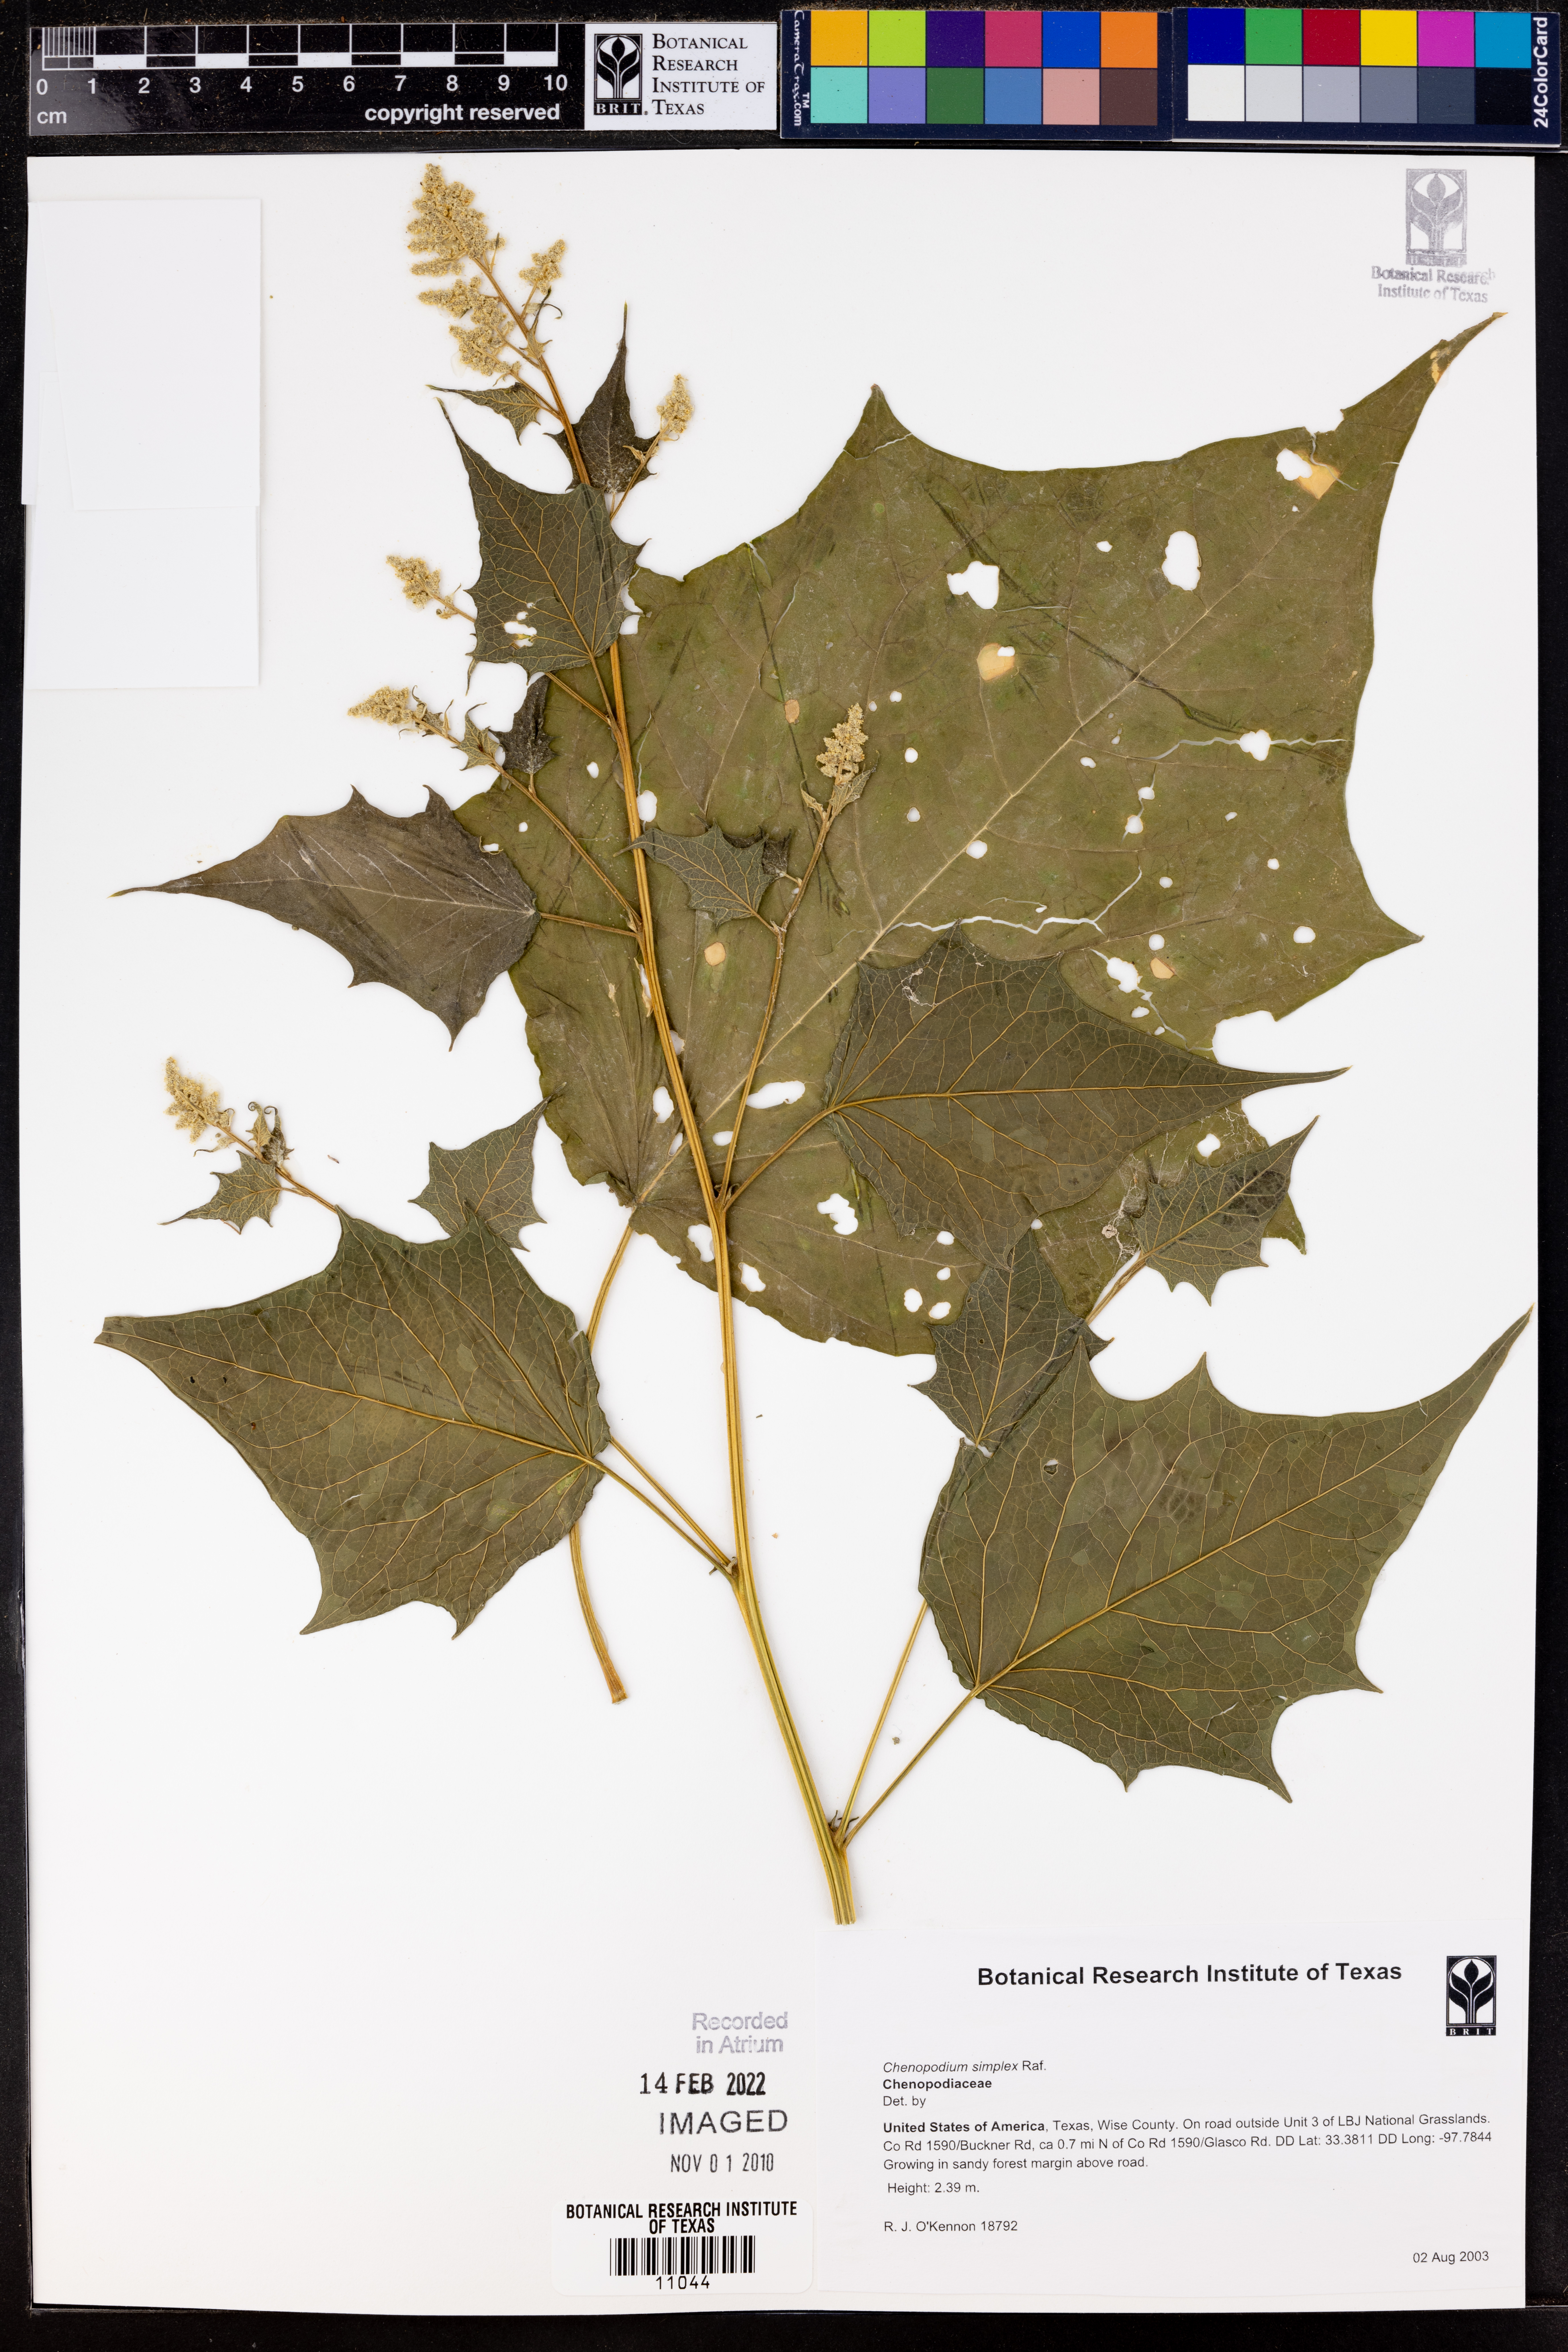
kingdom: Plantae
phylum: Tracheophyta
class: Magnoliopsida
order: Caryophyllales
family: Amaranthaceae
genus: Chenopodiastrum
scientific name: Chenopodiastrum simplex
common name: Large-seed goosefoot
